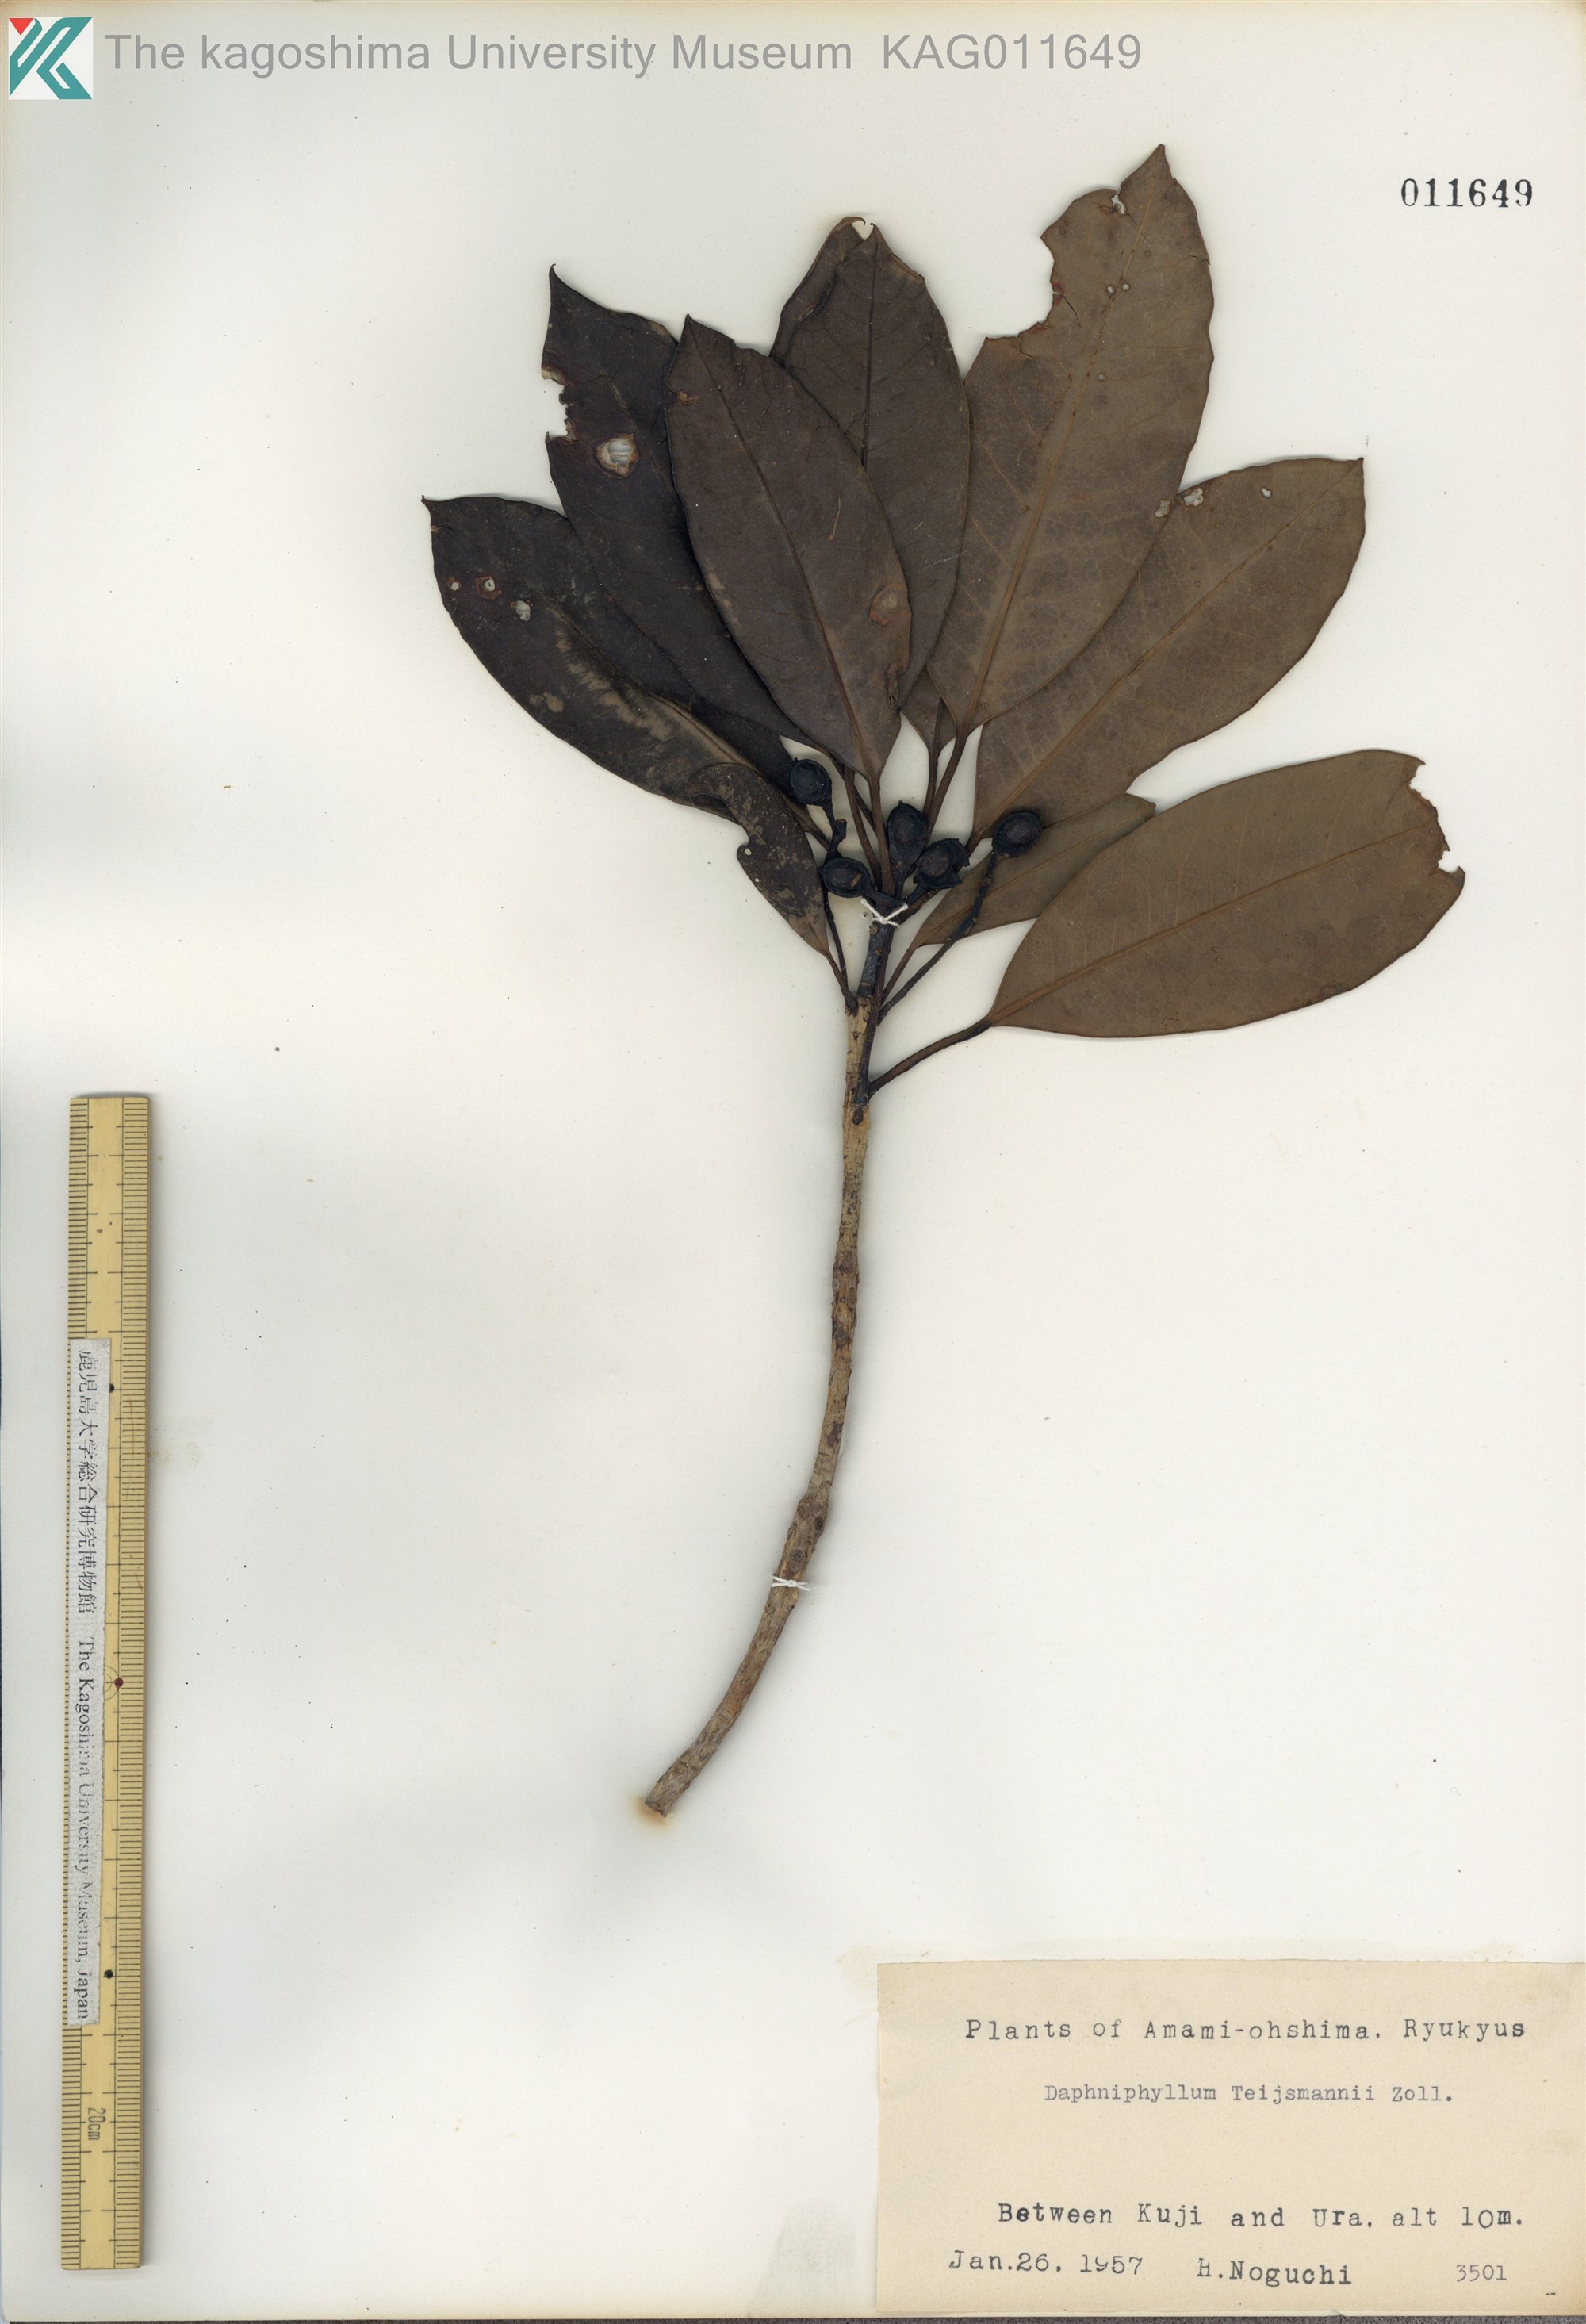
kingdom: Plantae
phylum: Tracheophyta
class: Magnoliopsida
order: Saxifragales
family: Daphniphyllaceae
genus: Daphniphyllum
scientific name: Daphniphyllum teijsmannii
